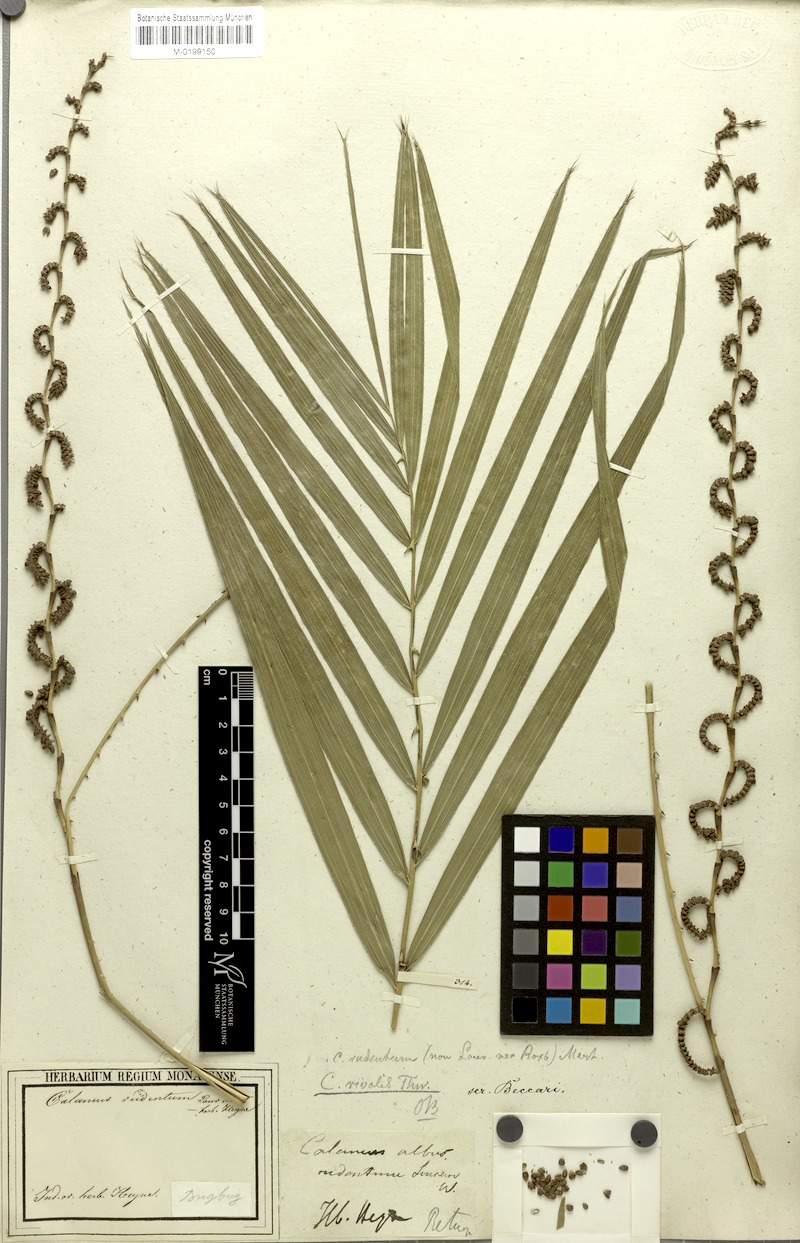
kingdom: Plantae
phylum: Tracheophyta
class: Liliopsida
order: Arecales
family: Arecaceae
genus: Calamus
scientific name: Calamus metzianus
